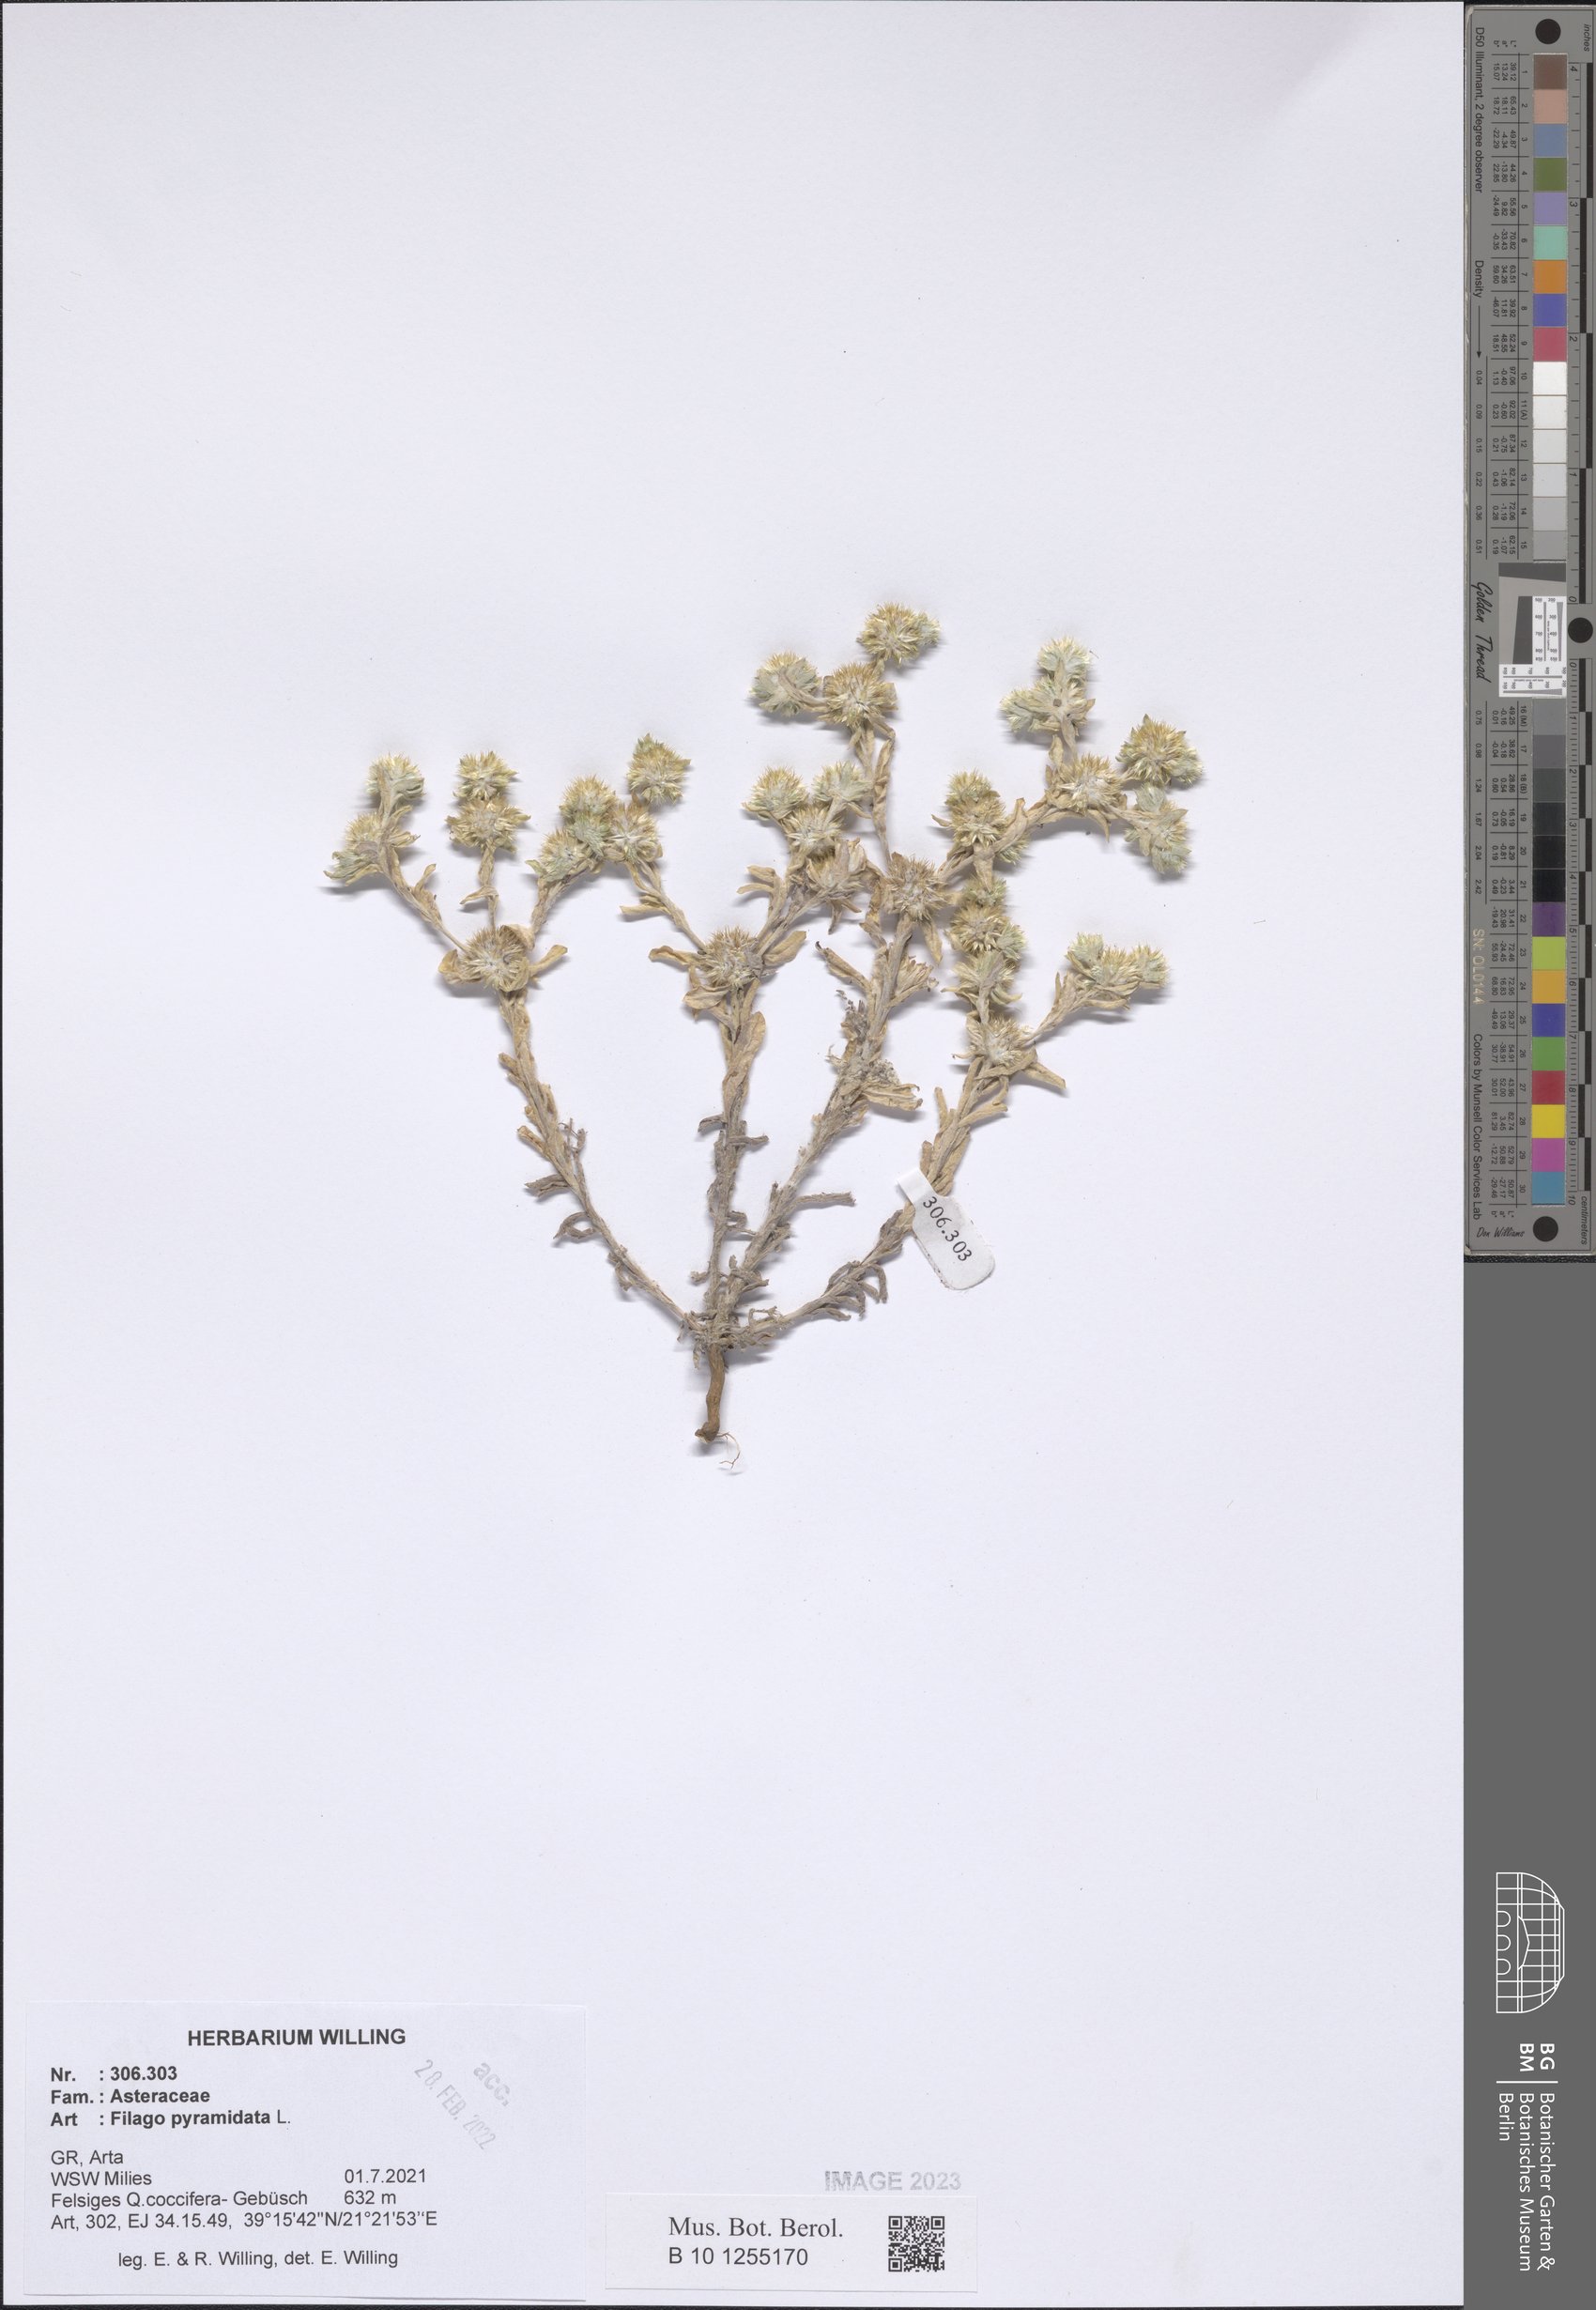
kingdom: Plantae
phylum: Tracheophyta
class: Magnoliopsida
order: Asterales
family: Asteraceae
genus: Filago
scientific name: Filago pyramidata
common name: Broad-leaved cudweed
